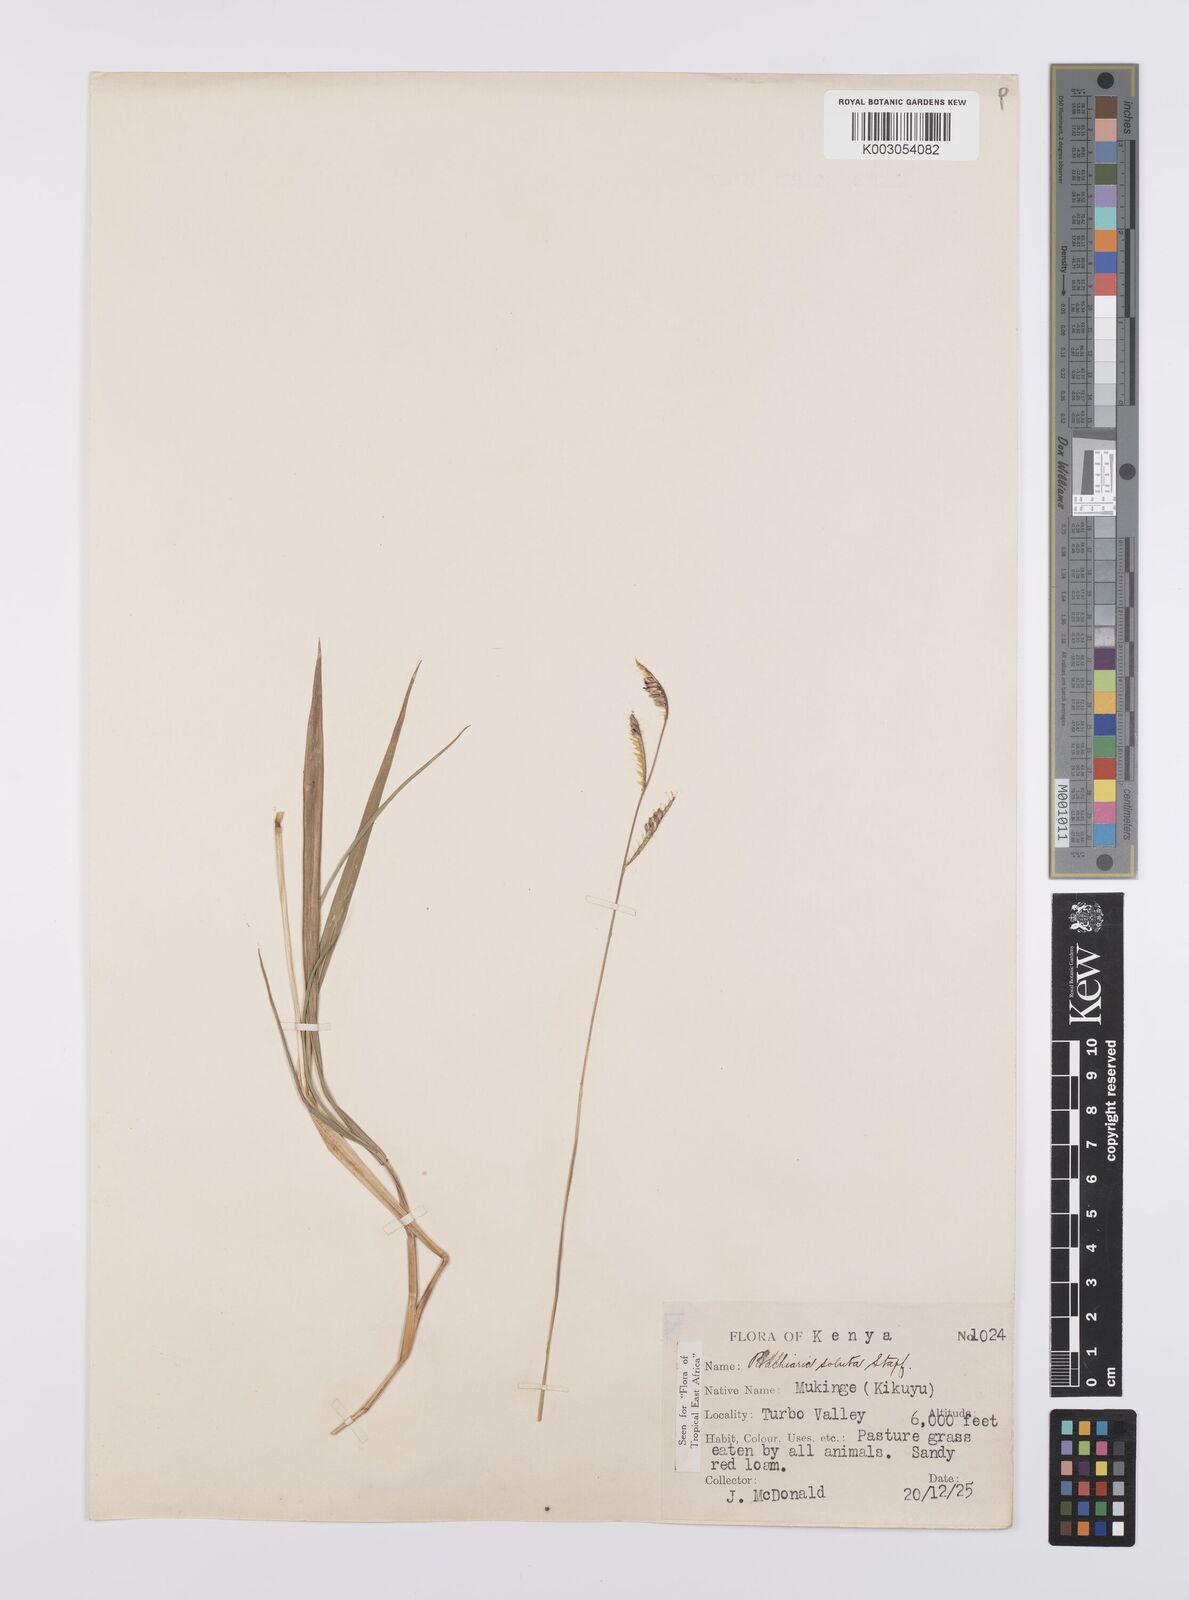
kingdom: Plantae
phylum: Tracheophyta
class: Liliopsida
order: Poales
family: Poaceae
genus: Urochloa
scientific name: Urochloa jubata
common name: Buffalograss
